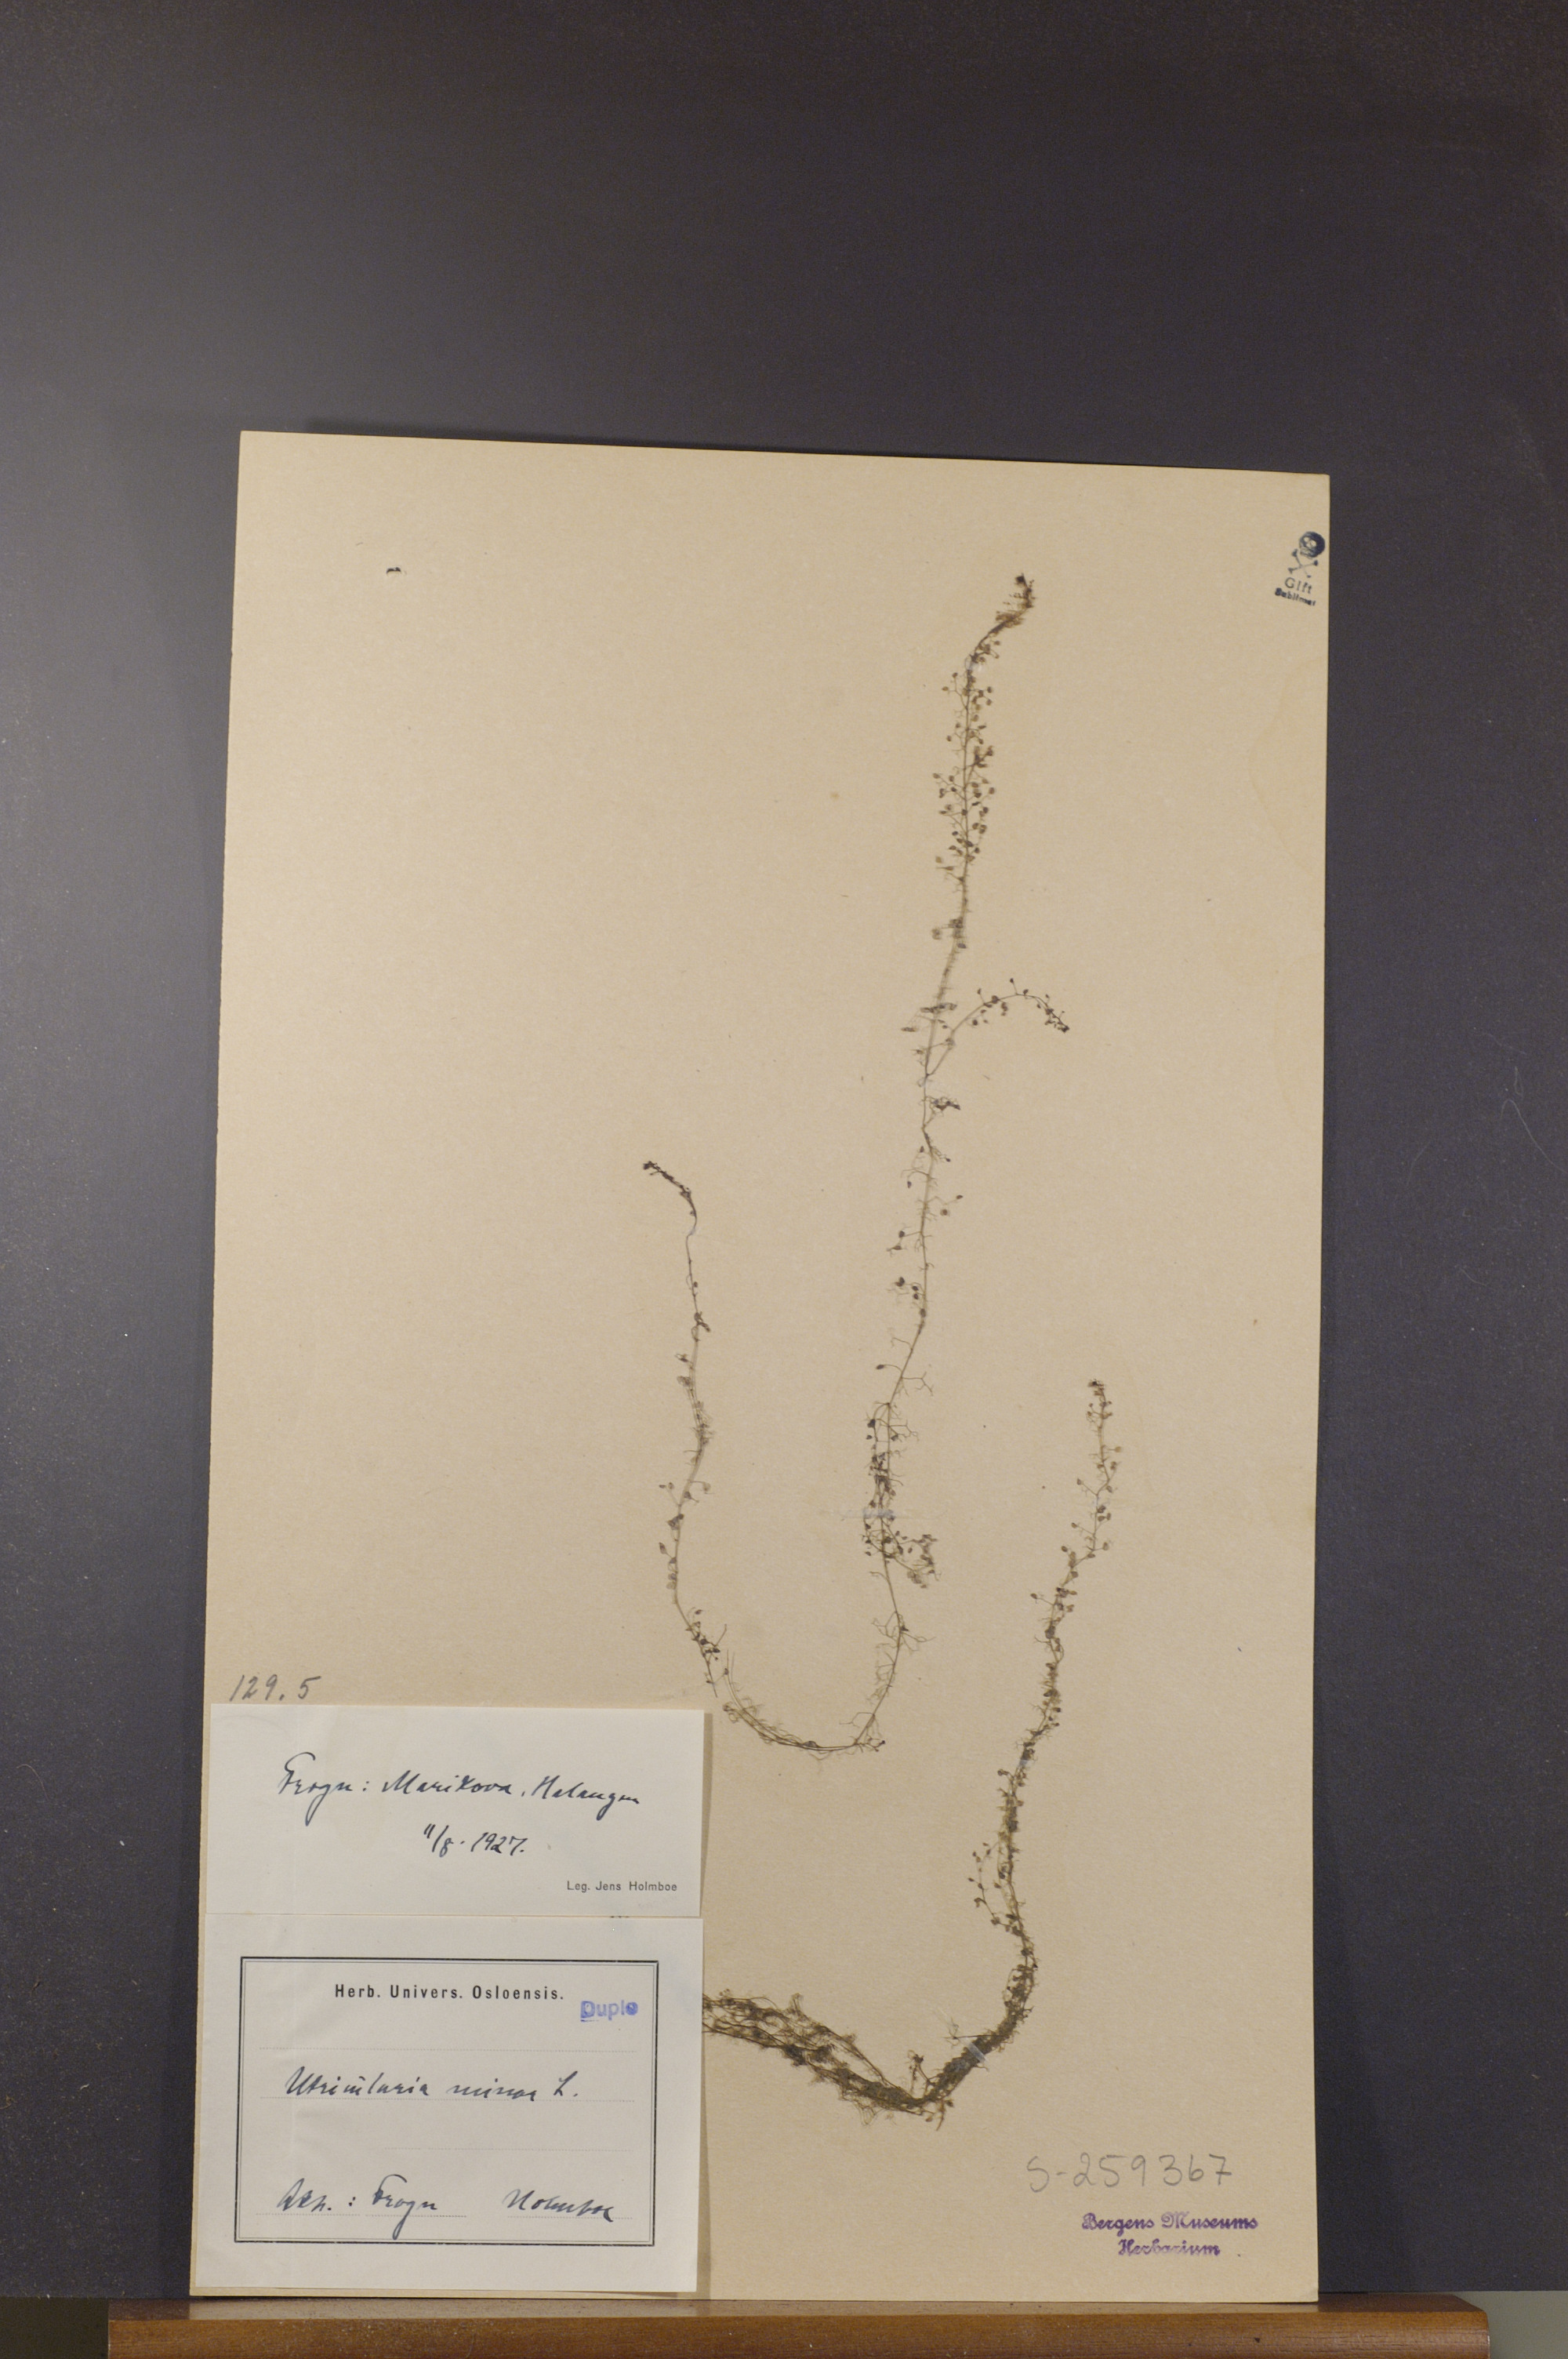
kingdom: Plantae
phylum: Tracheophyta
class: Magnoliopsida
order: Lamiales
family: Lentibulariaceae
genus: Utricularia
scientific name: Utricularia intermedia
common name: Intermediate bladderwort
